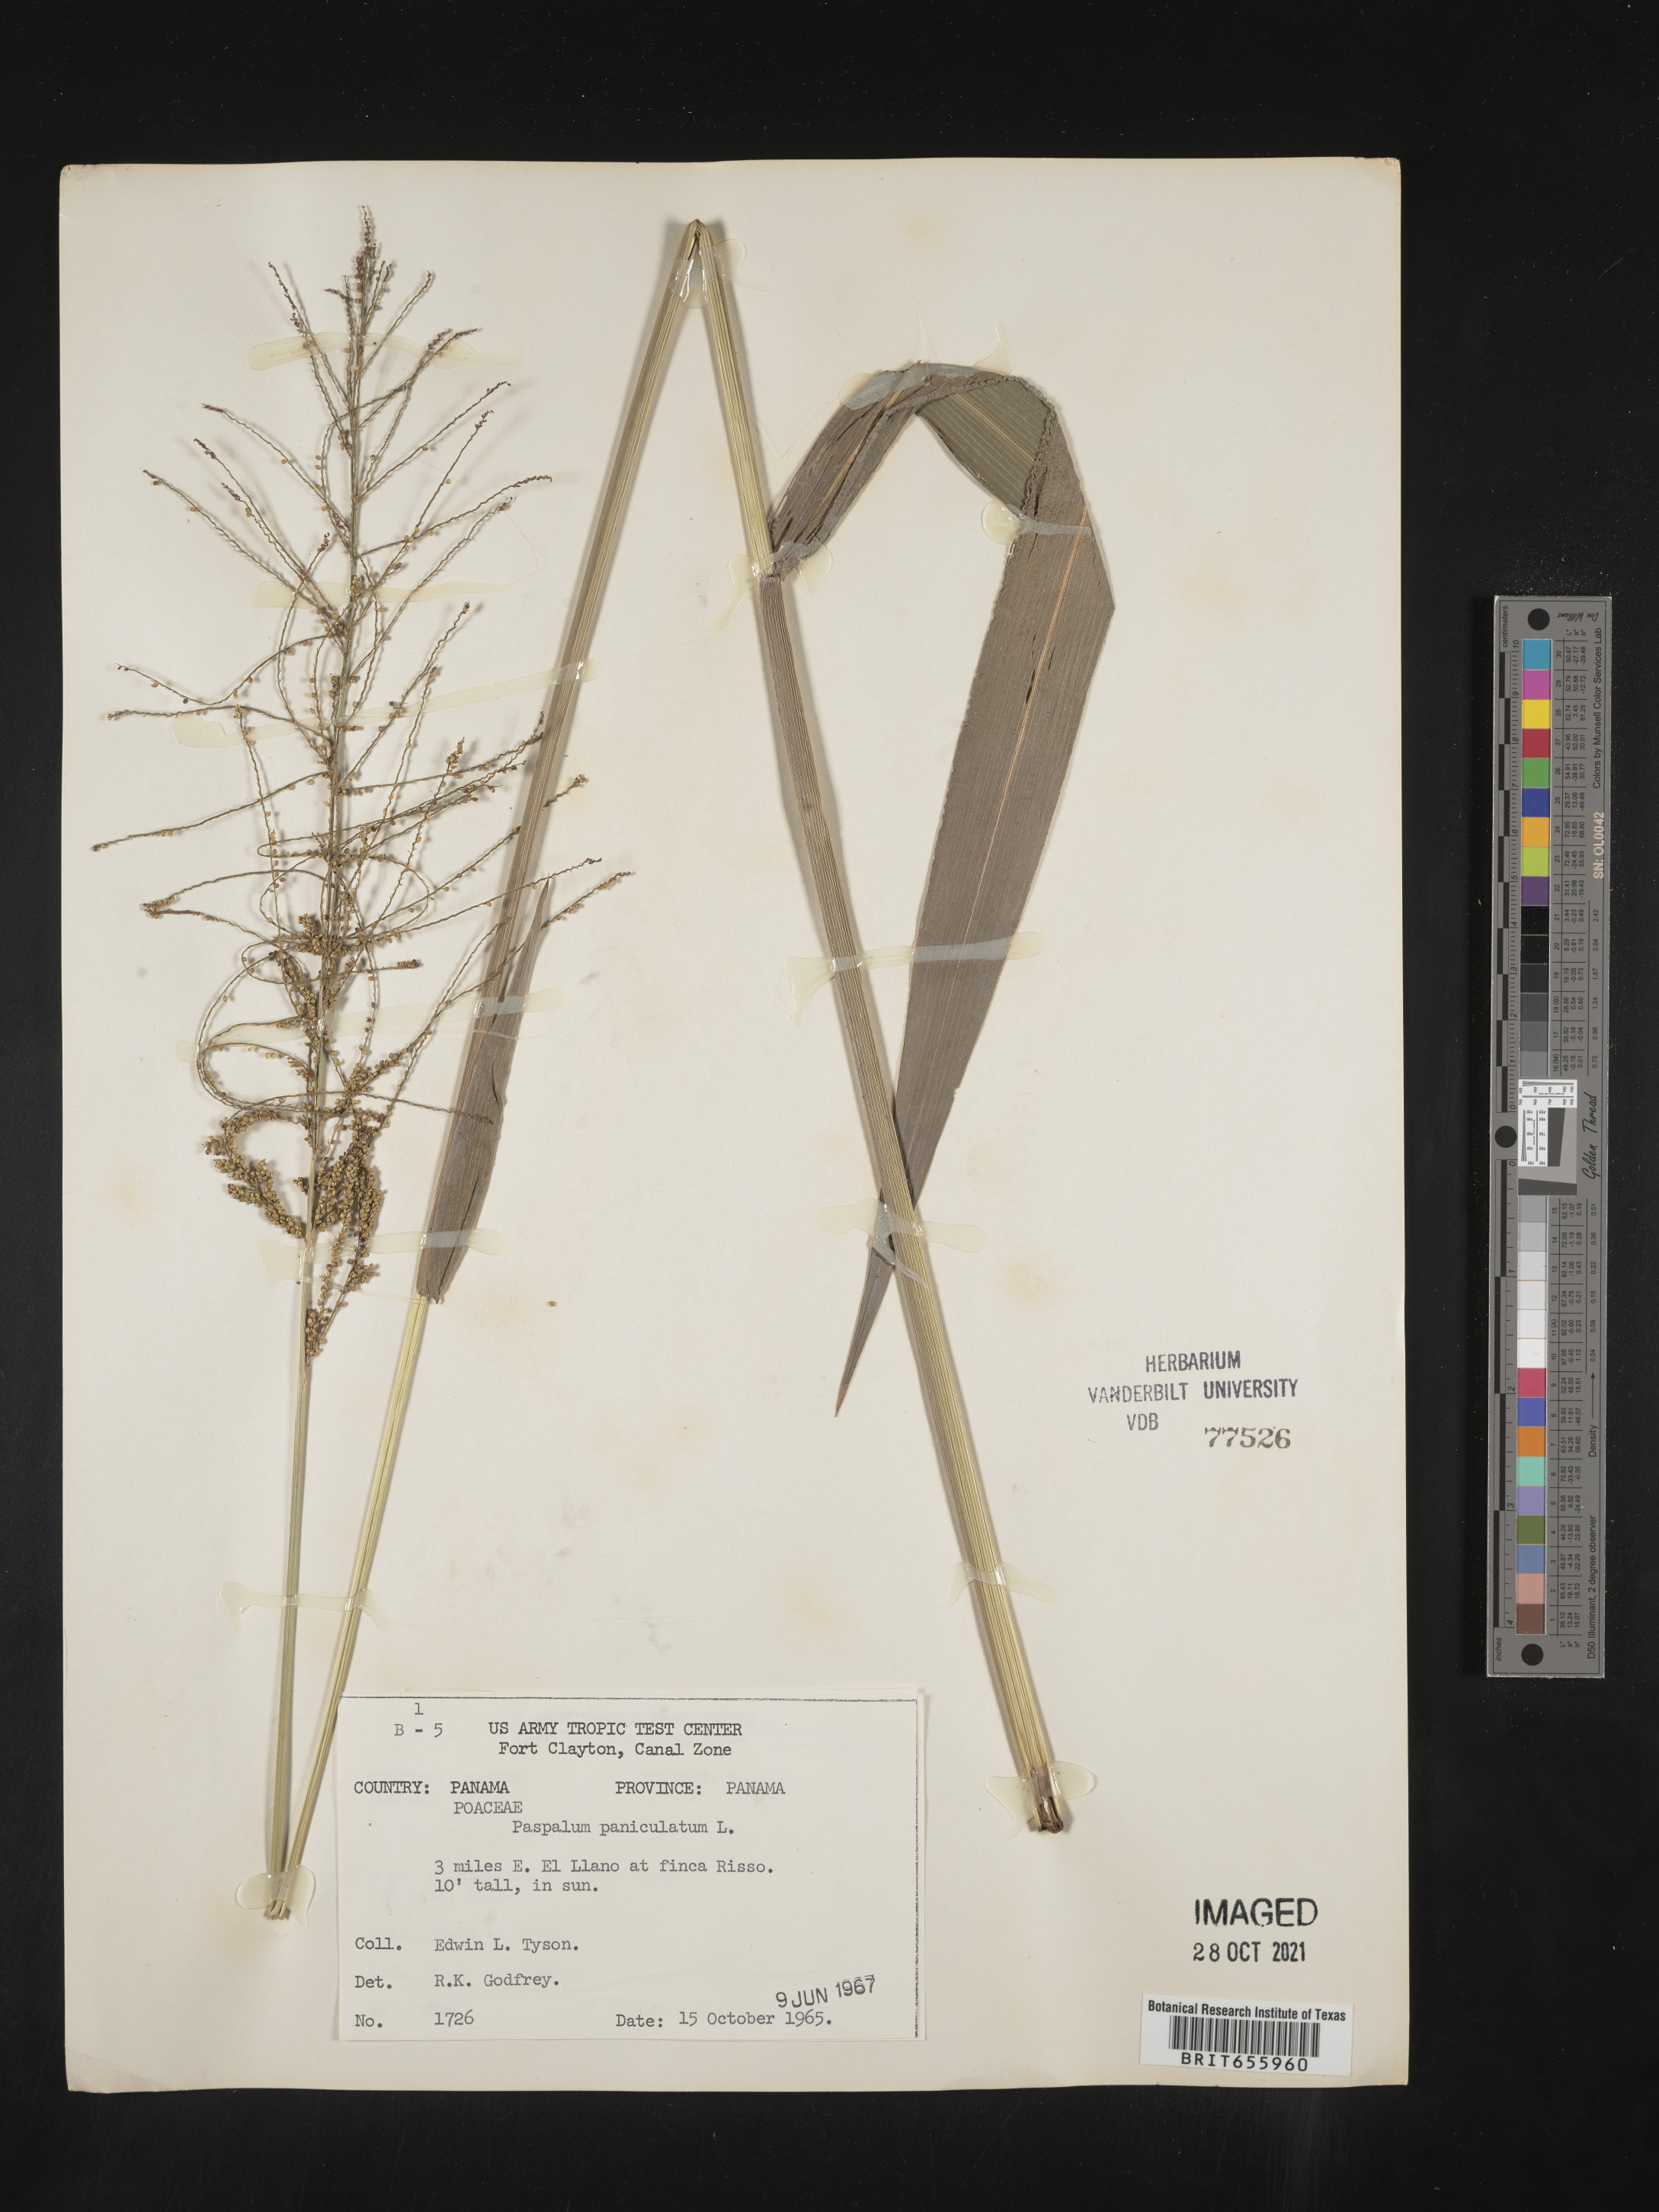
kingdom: Plantae
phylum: Tracheophyta
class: Liliopsida
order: Poales
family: Poaceae
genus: Paspalum
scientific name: Paspalum
